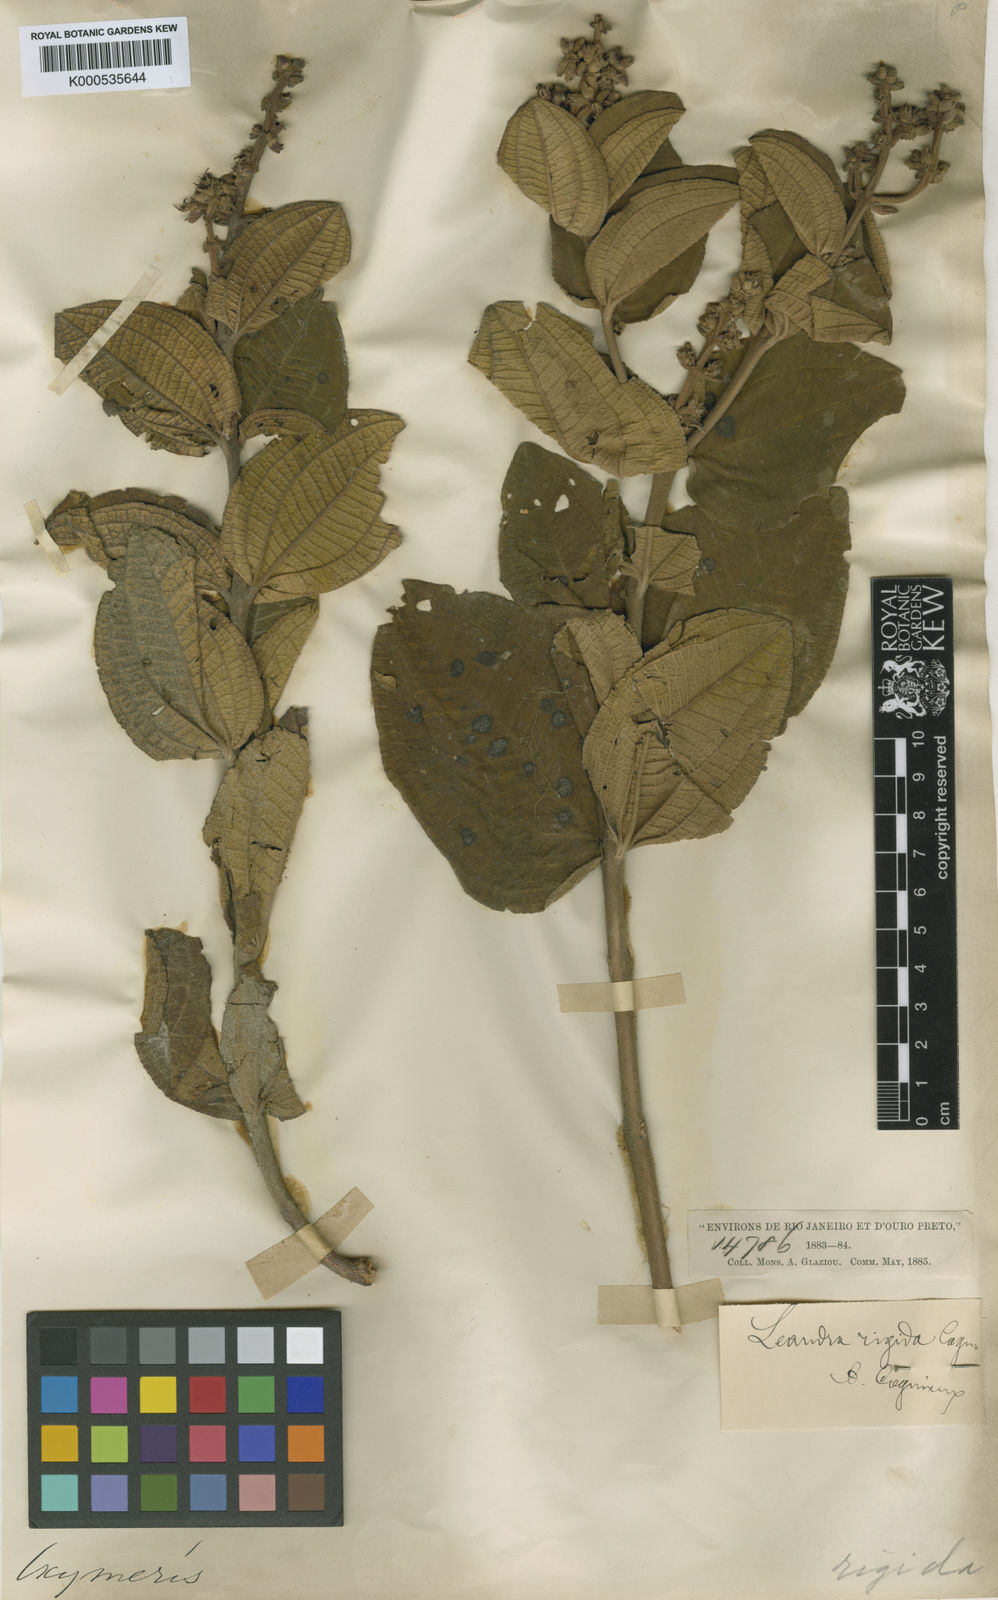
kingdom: Plantae
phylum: Tracheophyta
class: Magnoliopsida
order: Myrtales
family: Melastomataceae
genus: Miconia
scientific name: Miconia learigida
